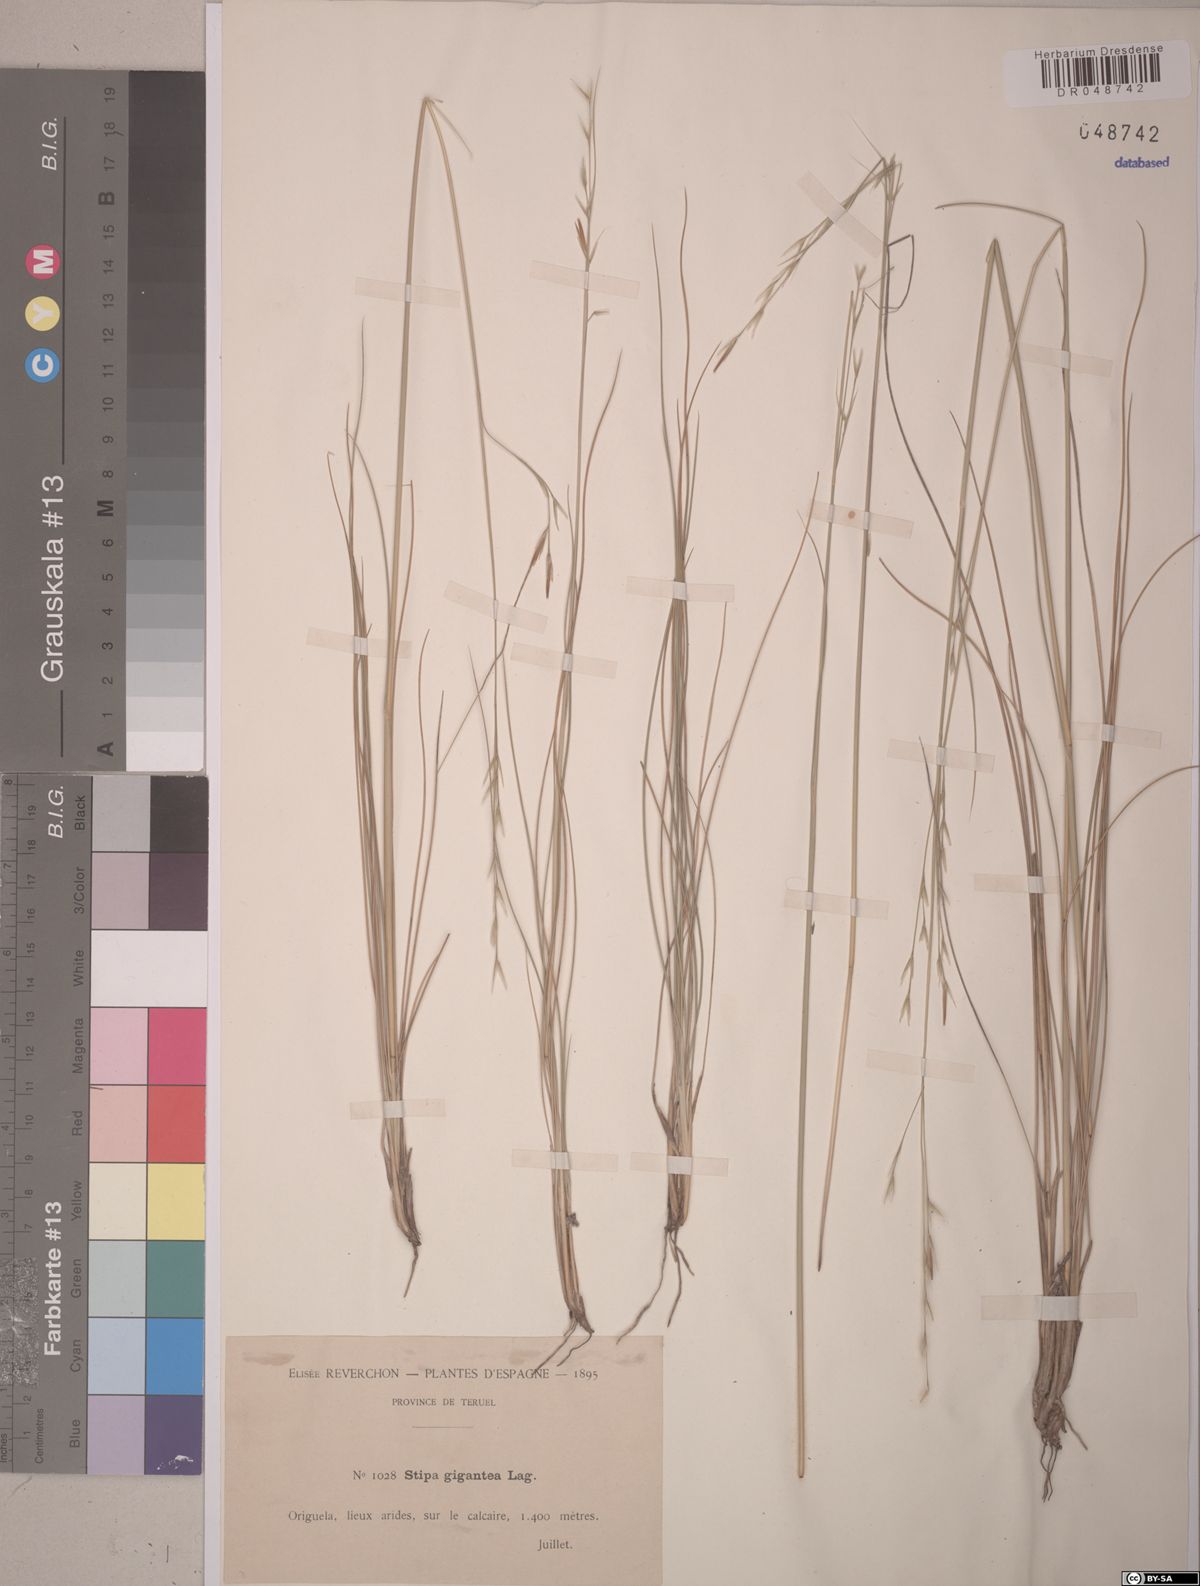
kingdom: Plantae
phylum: Tracheophyta
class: Liliopsida
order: Poales
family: Poaceae
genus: Celtica
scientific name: Celtica gigantea
